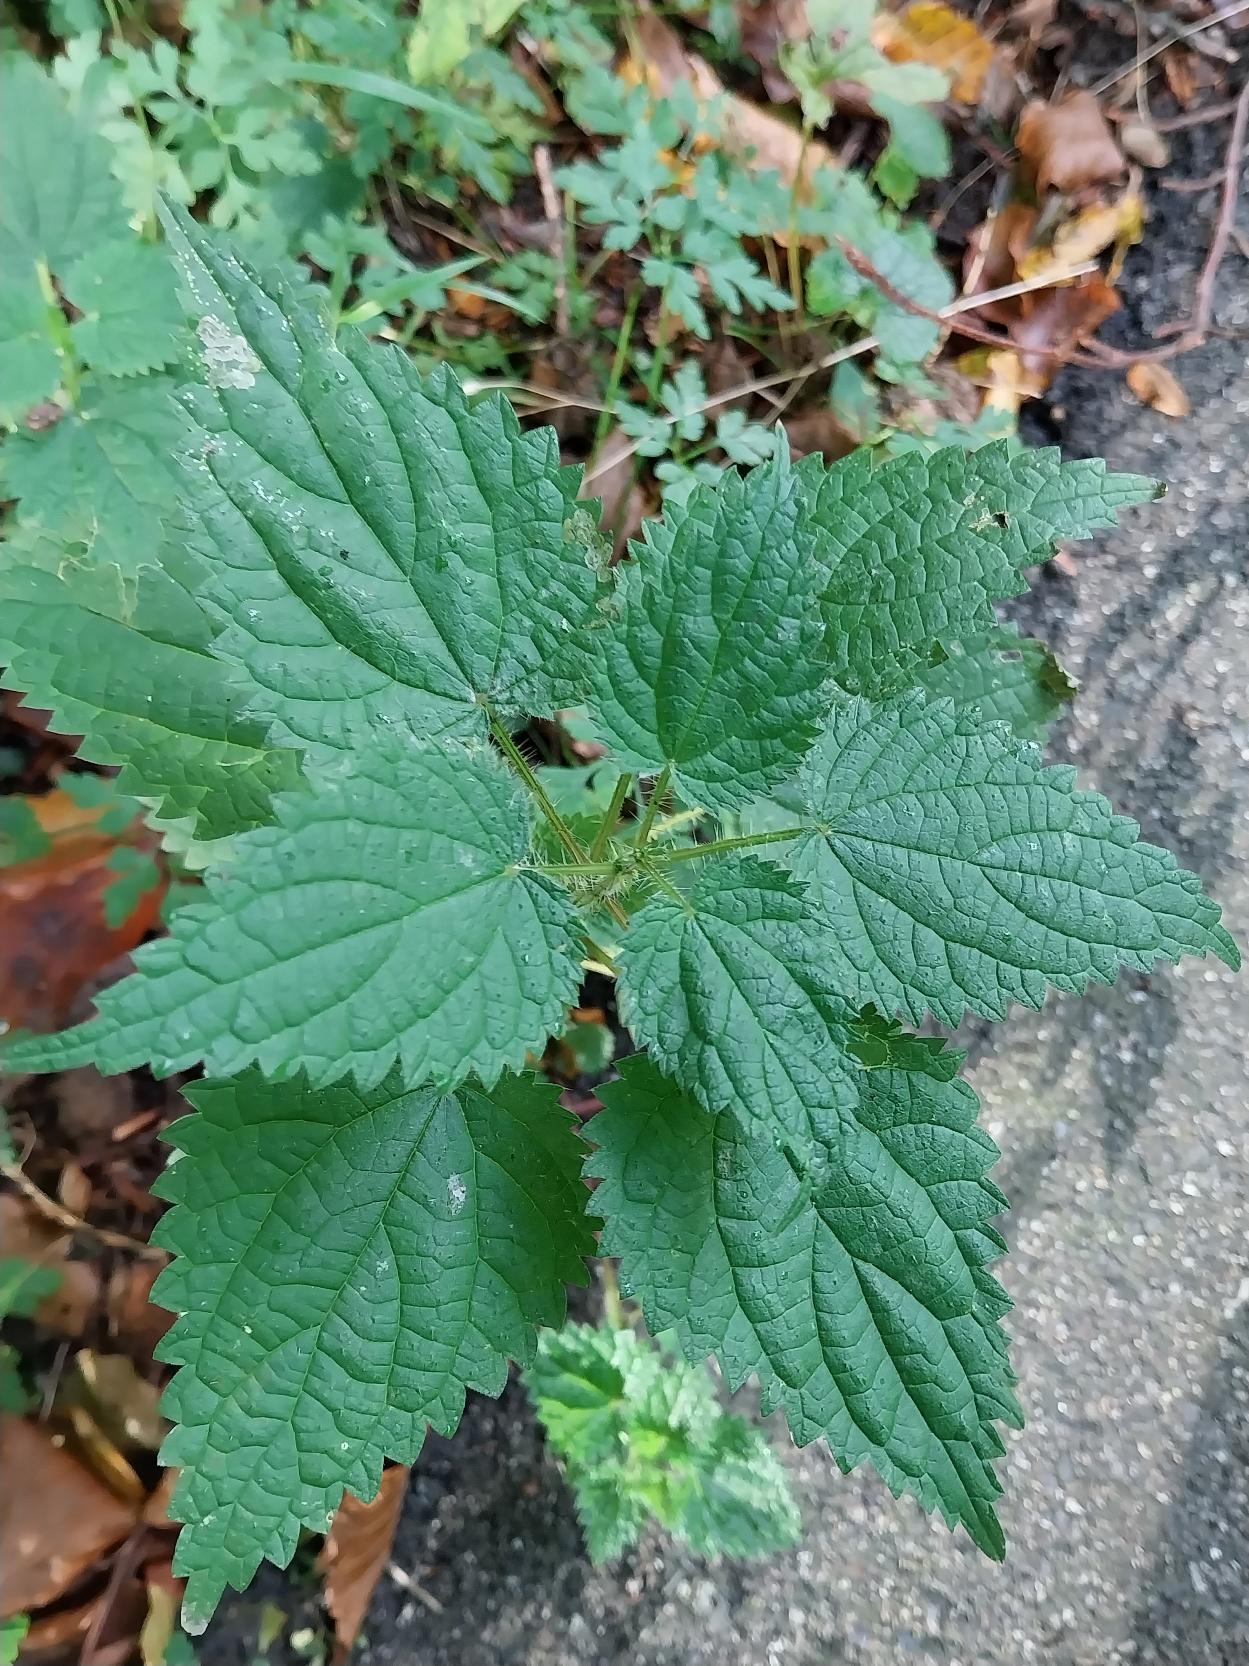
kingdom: Plantae
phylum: Tracheophyta
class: Magnoliopsida
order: Rosales
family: Urticaceae
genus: Urtica
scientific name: Urtica dioica
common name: Stor nælde
